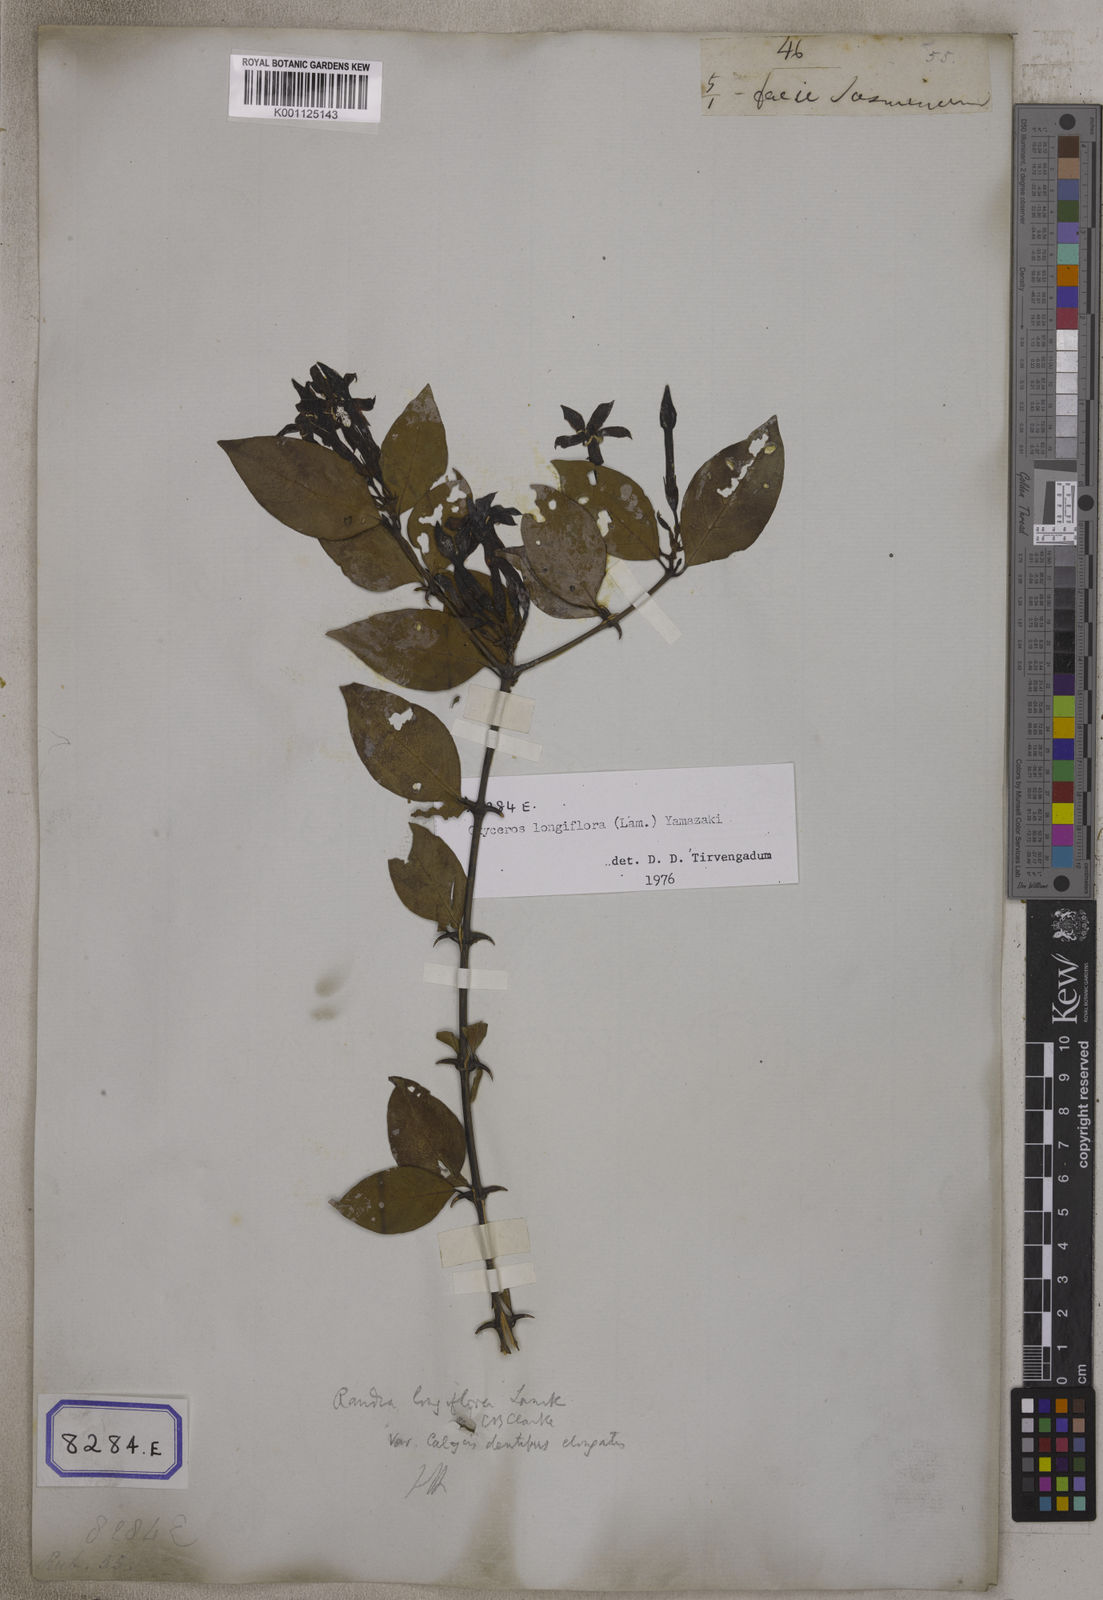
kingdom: Plantae
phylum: Tracheophyta
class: Magnoliopsida
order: Gentianales
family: Rubiaceae
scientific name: Rubiaceae
